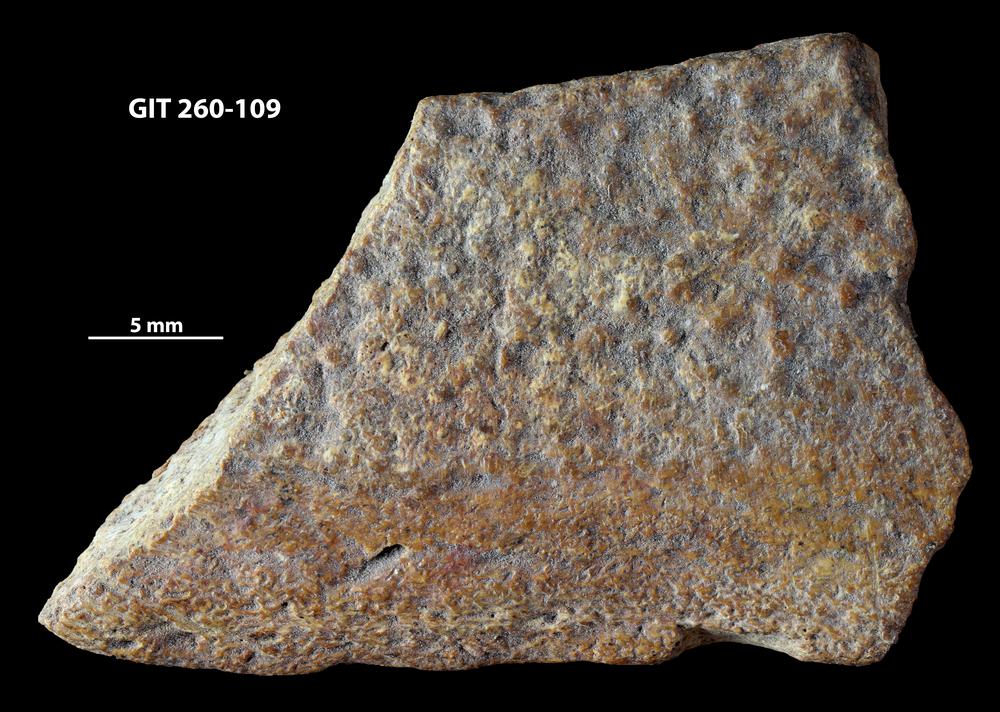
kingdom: Animalia
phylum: Chordata
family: Homostiidae
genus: Homostius
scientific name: Homostius
